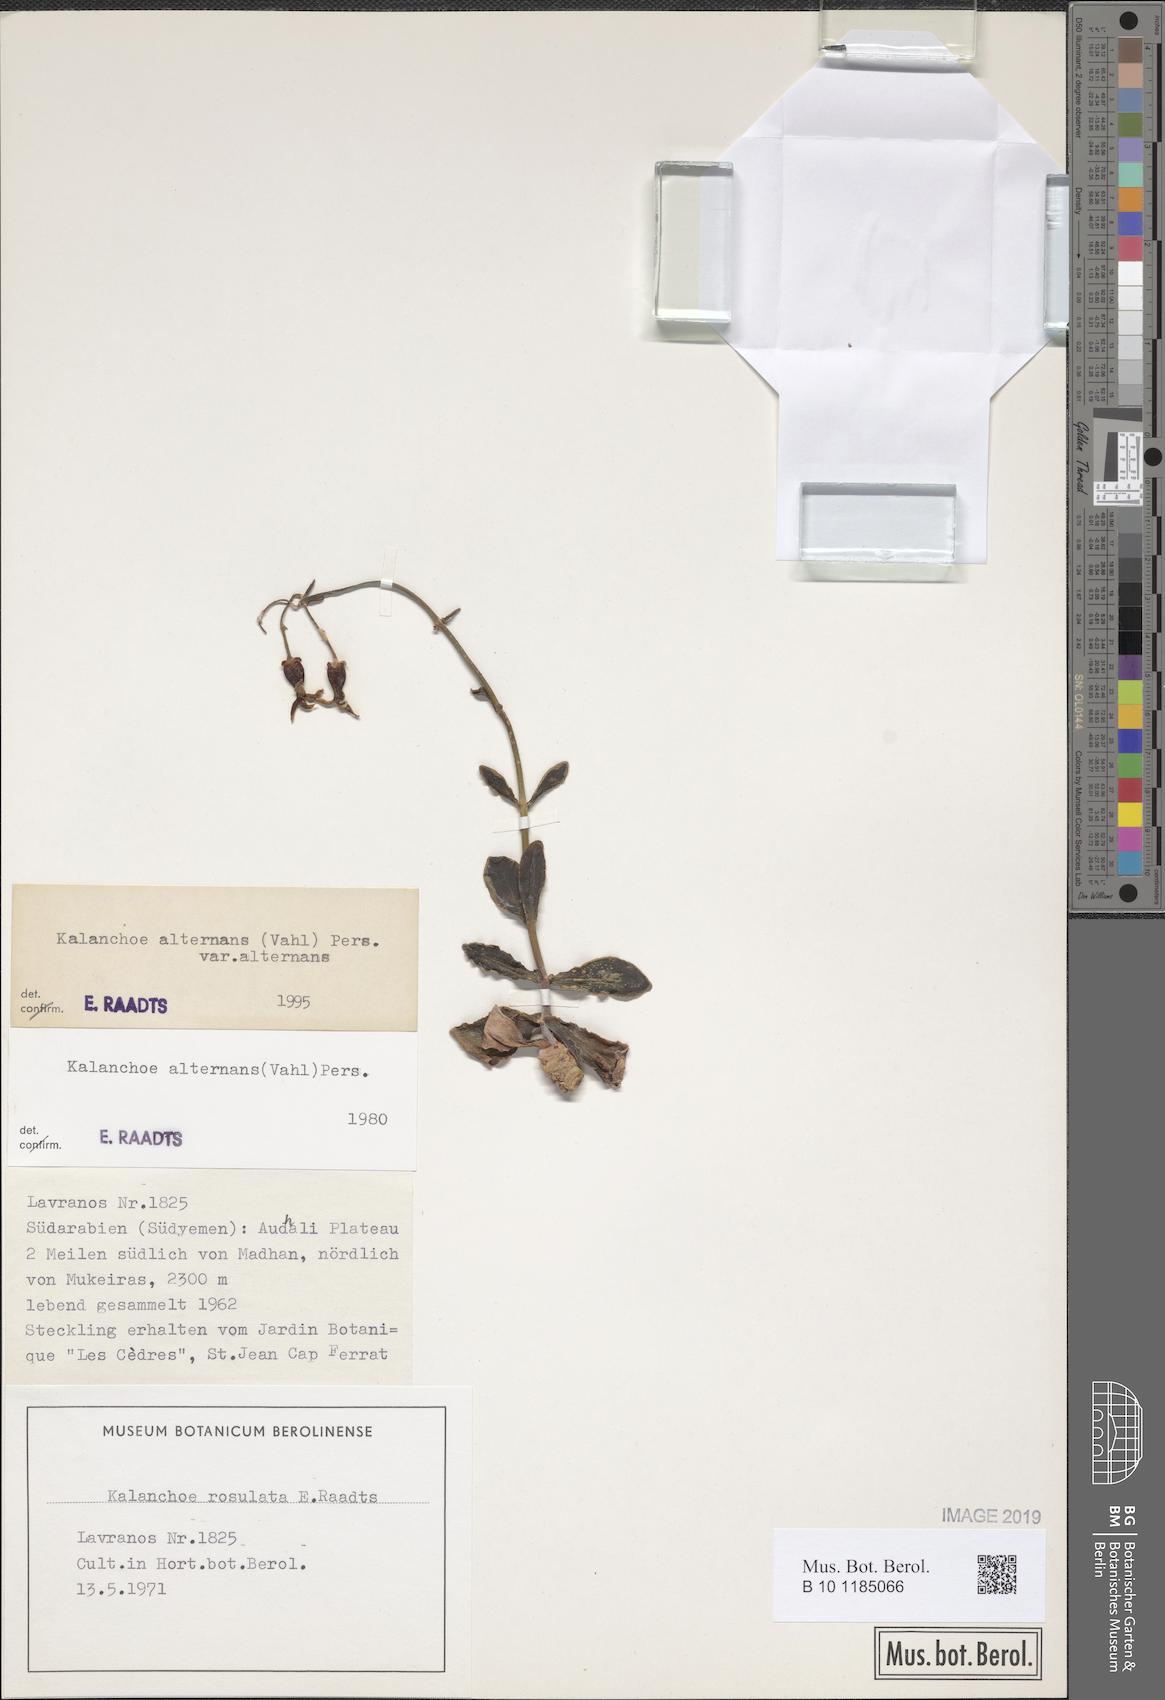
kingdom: Plantae
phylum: Tracheophyta
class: Magnoliopsida
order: Saxifragales
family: Crassulaceae
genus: Kalanchoe
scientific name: Kalanchoe alternans
